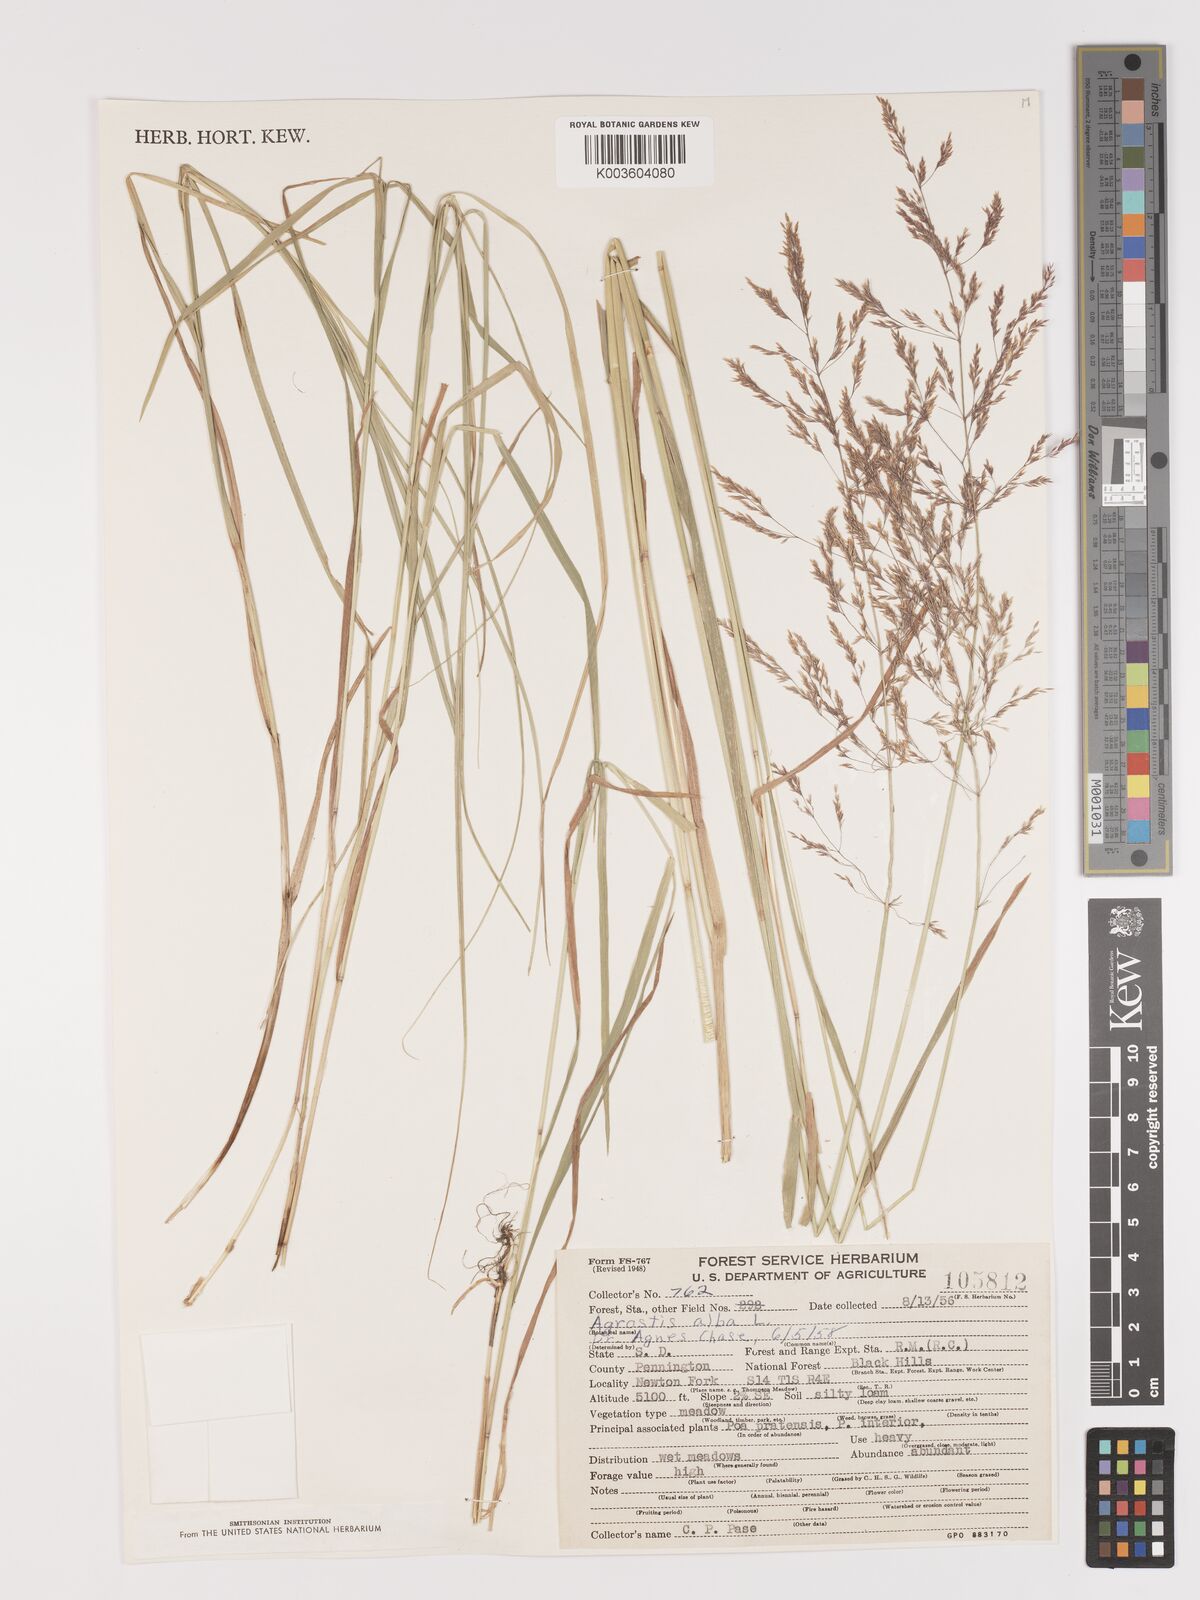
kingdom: Plantae
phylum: Tracheophyta
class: Liliopsida
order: Poales
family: Poaceae
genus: Agrostis
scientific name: Agrostis gigantea
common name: Black bent
